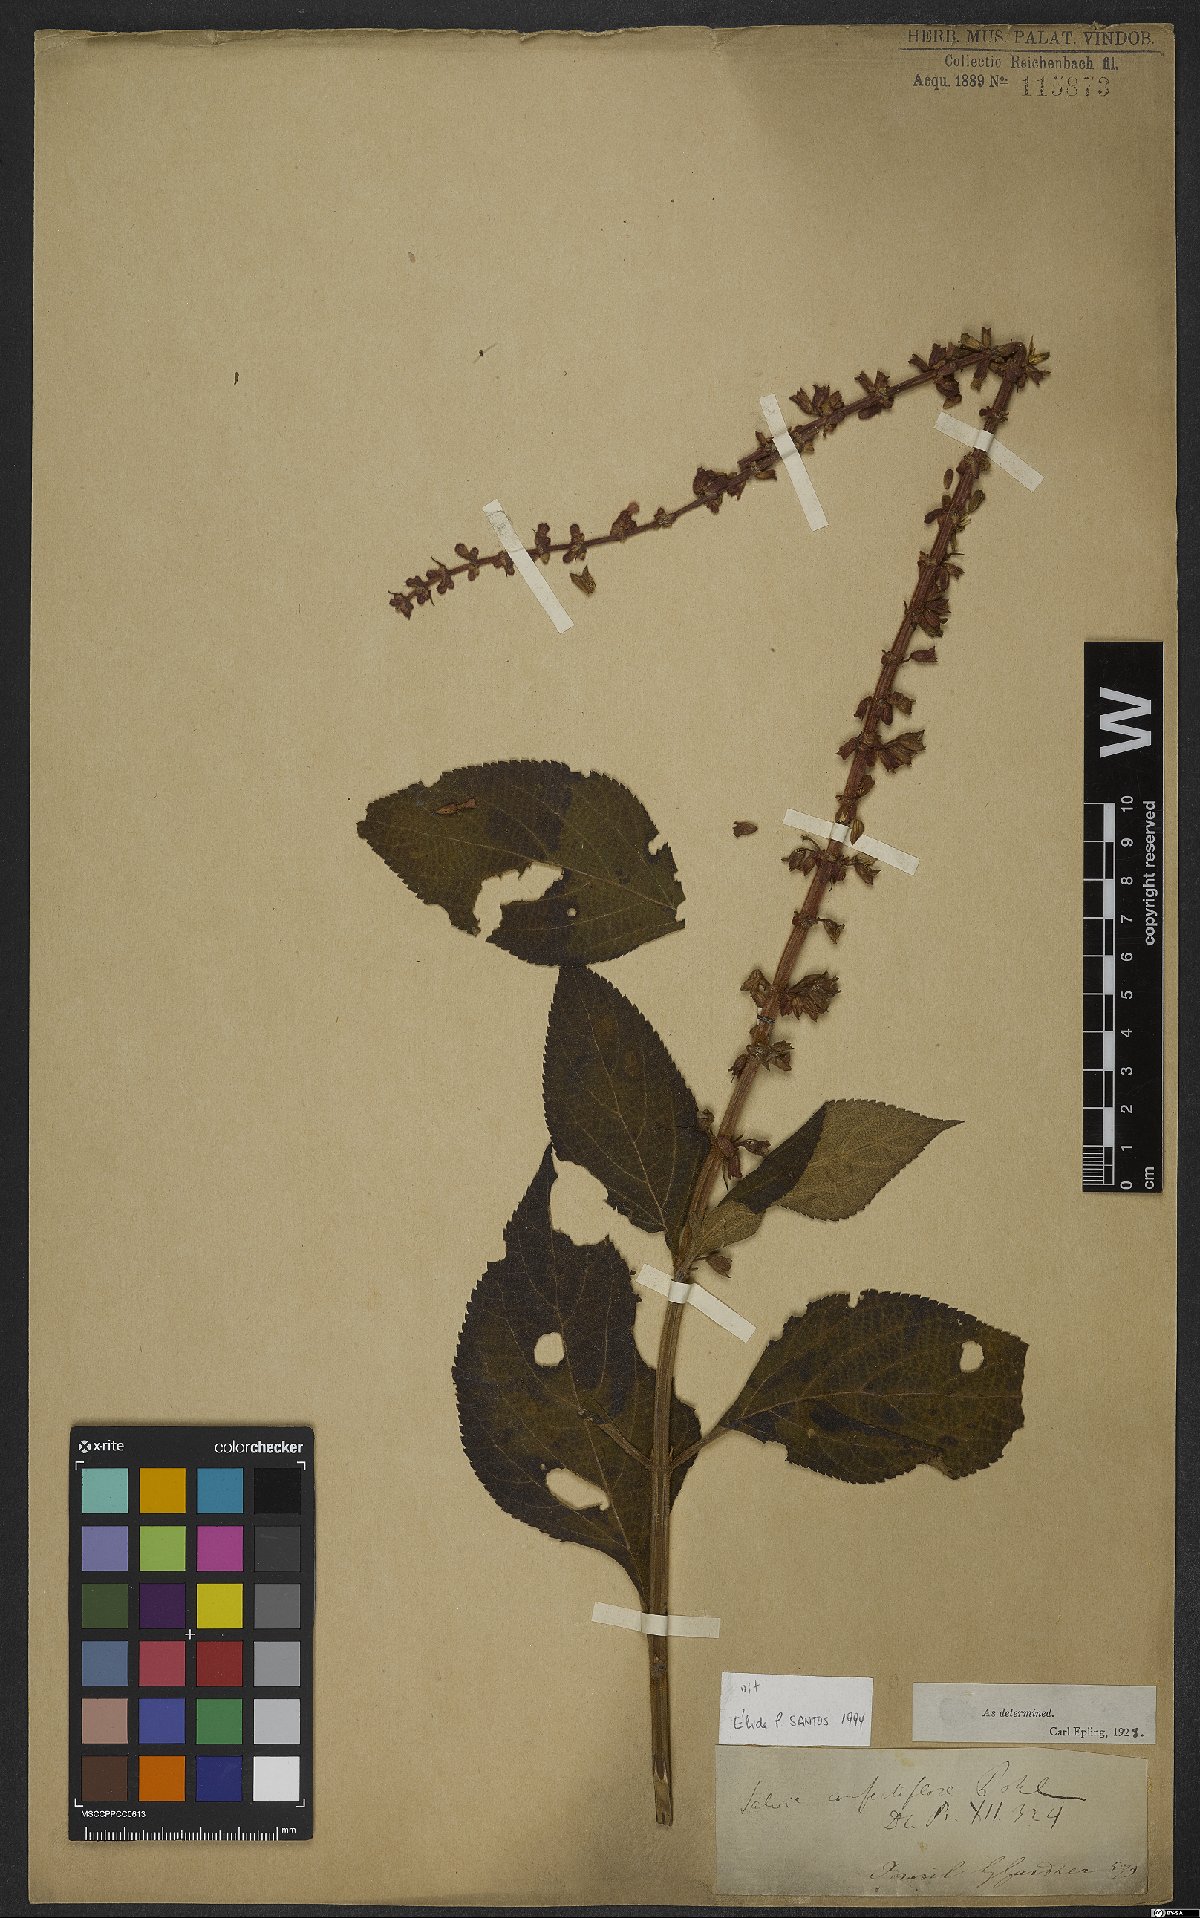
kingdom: Plantae
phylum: Tracheophyta
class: Magnoliopsida
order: Lamiales
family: Lamiaceae
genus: Salvia
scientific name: Salvia confertiflora
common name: Sabra-spike sage
